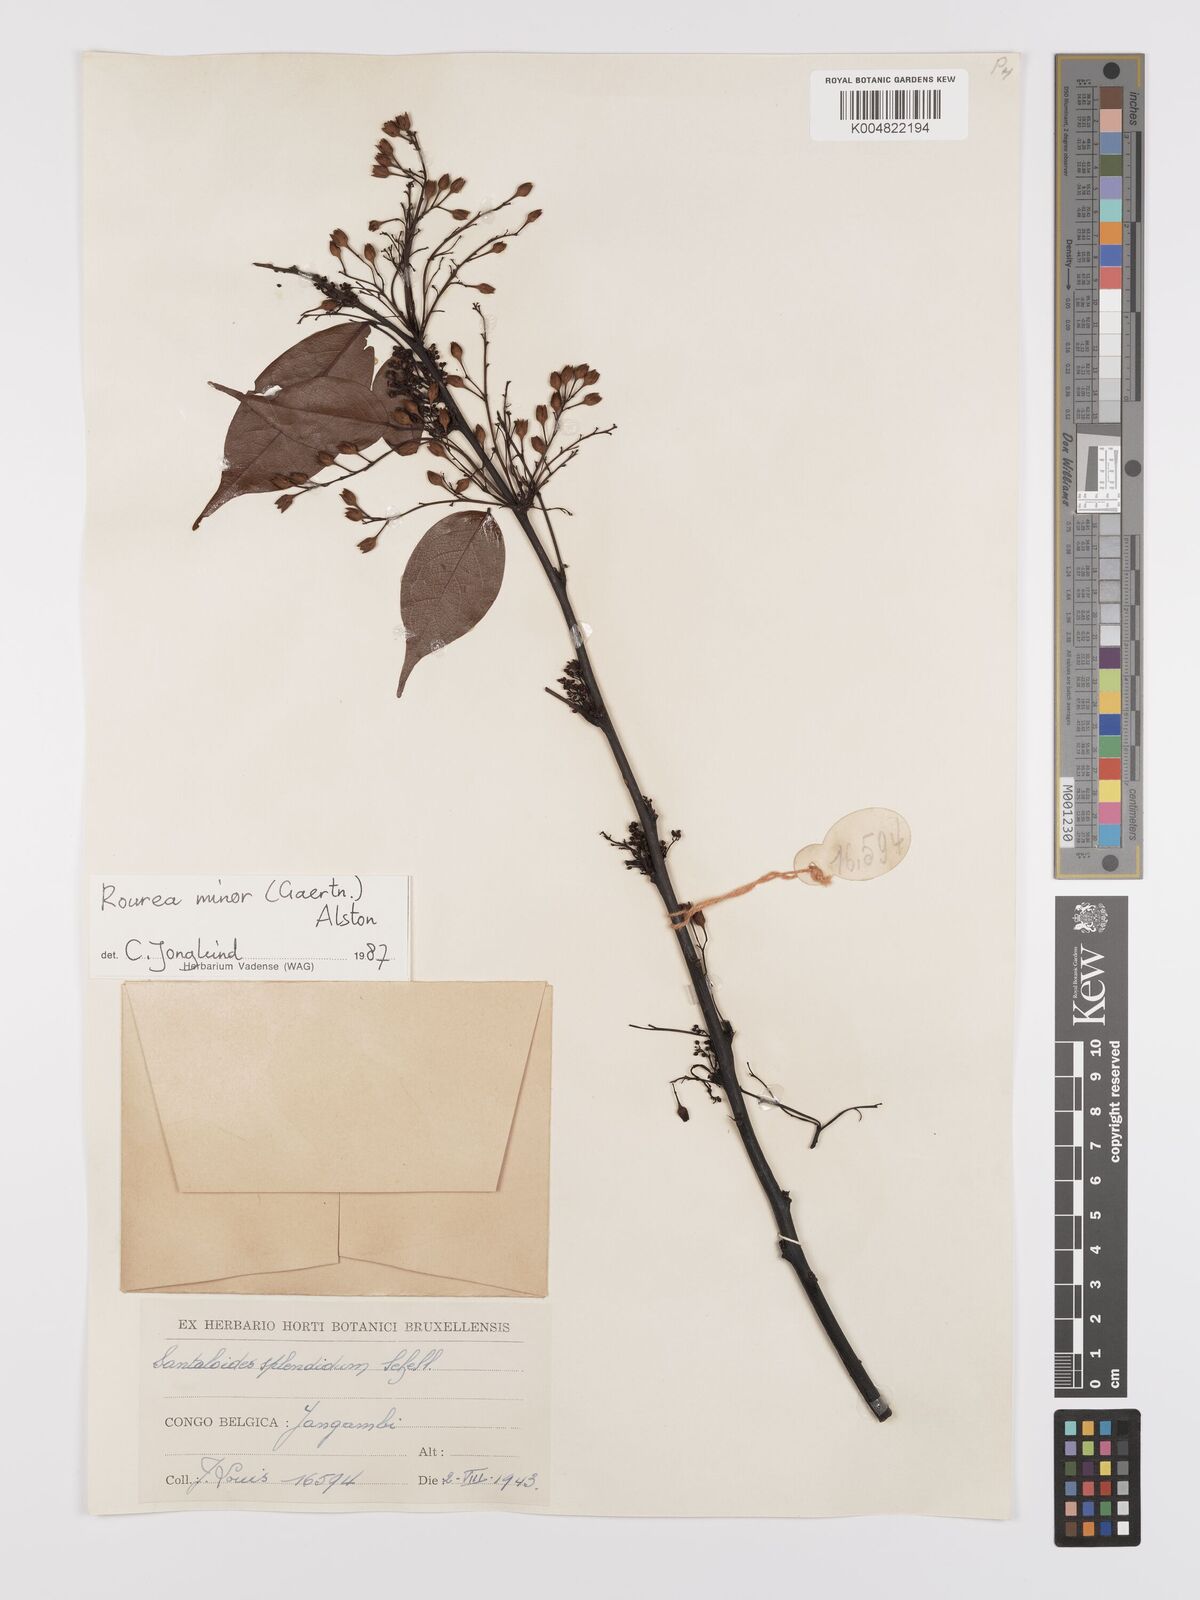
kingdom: Plantae
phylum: Tracheophyta
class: Magnoliopsida
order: Oxalidales
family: Connaraceae
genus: Rourea
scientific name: Rourea minor
